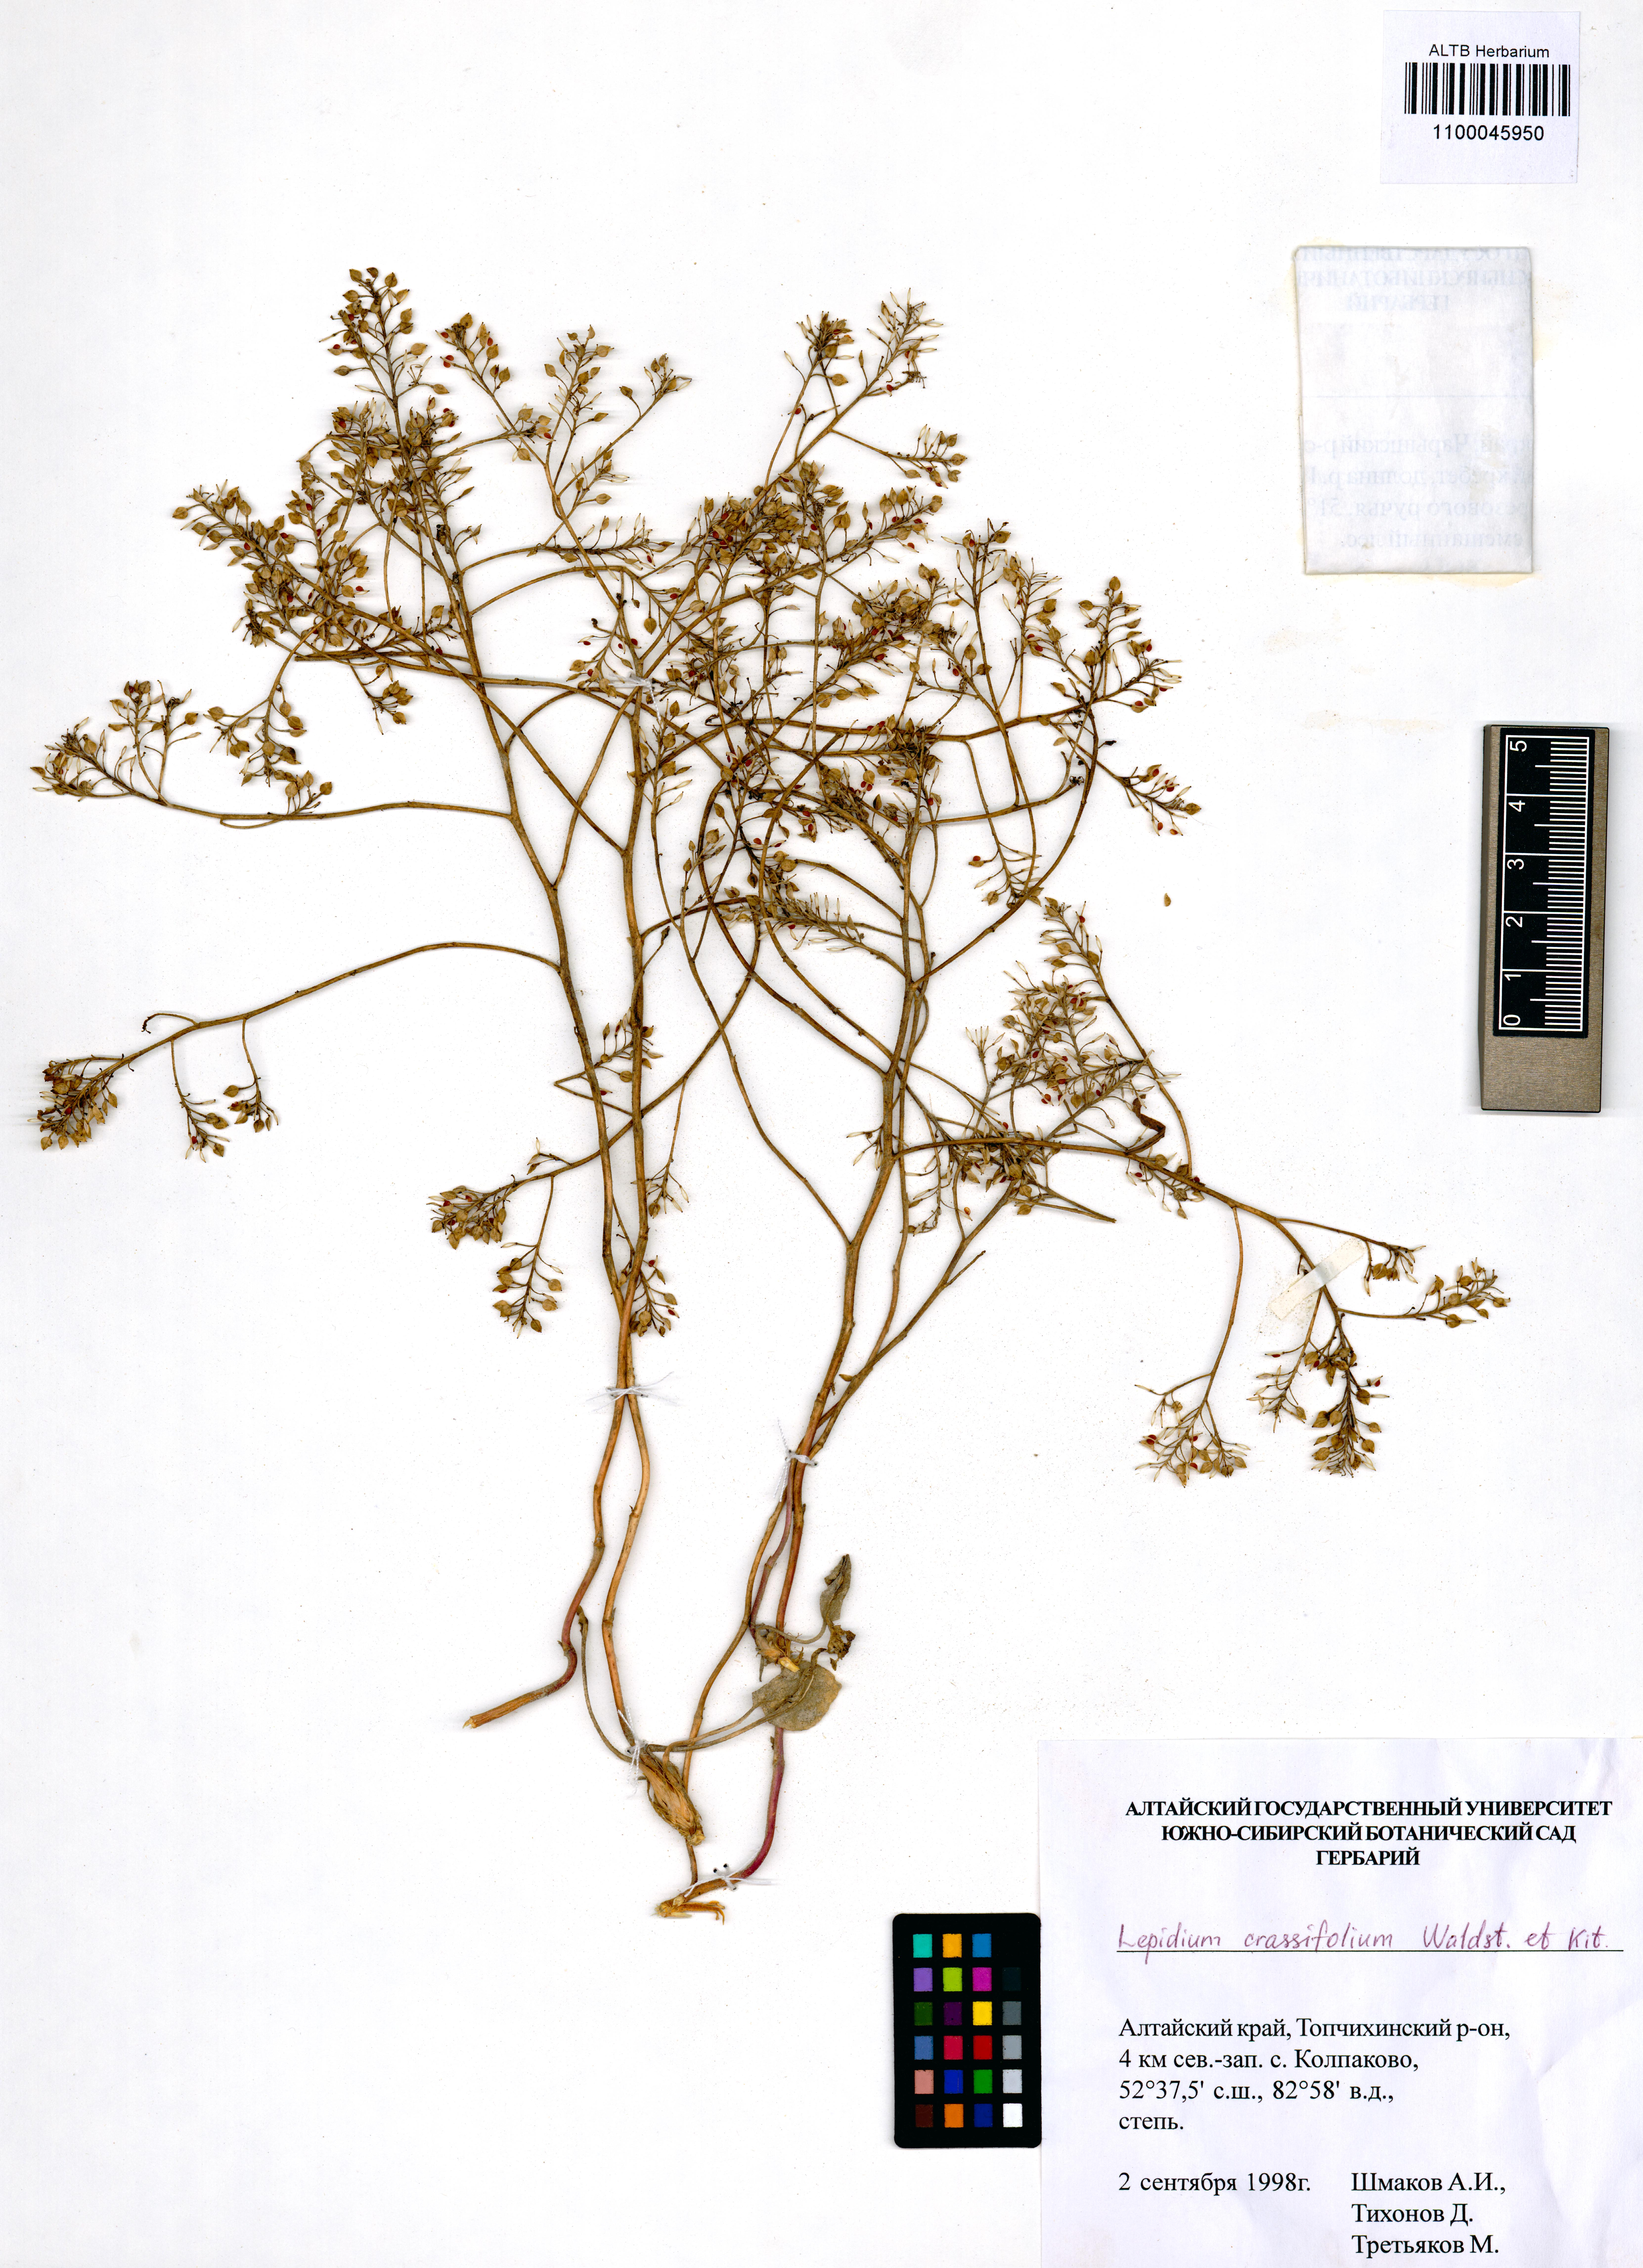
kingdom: Plantae
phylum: Tracheophyta
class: Magnoliopsida
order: Brassicales
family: Brassicaceae
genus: Lepidium
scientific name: Lepidium cartilagineum
